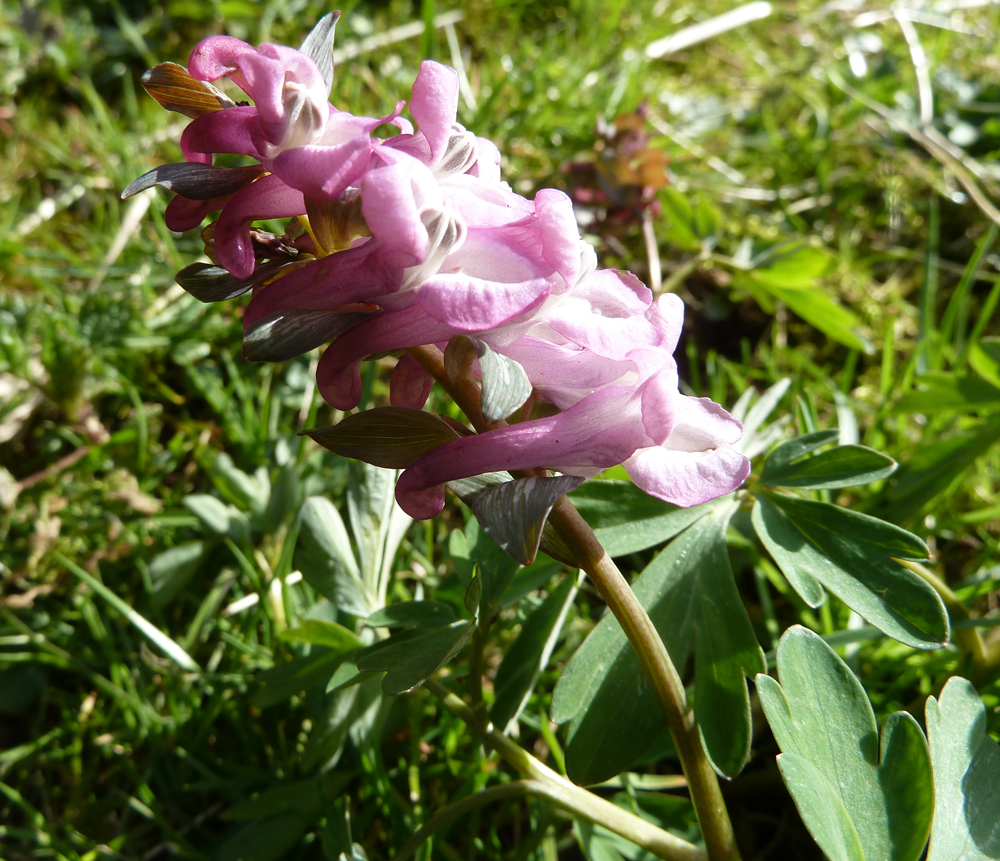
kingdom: Plantae
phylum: Tracheophyta
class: Magnoliopsida
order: Ranunculales
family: Papaveraceae
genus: Corydalis
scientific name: Corydalis cava
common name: Hollowroot
